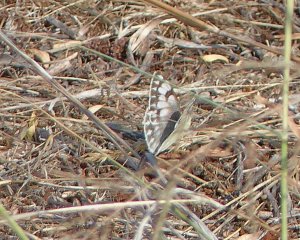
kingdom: Animalia
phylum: Arthropoda
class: Insecta
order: Lepidoptera
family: Pieridae
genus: Pontia
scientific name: Pontia occidentalis
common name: Western White
